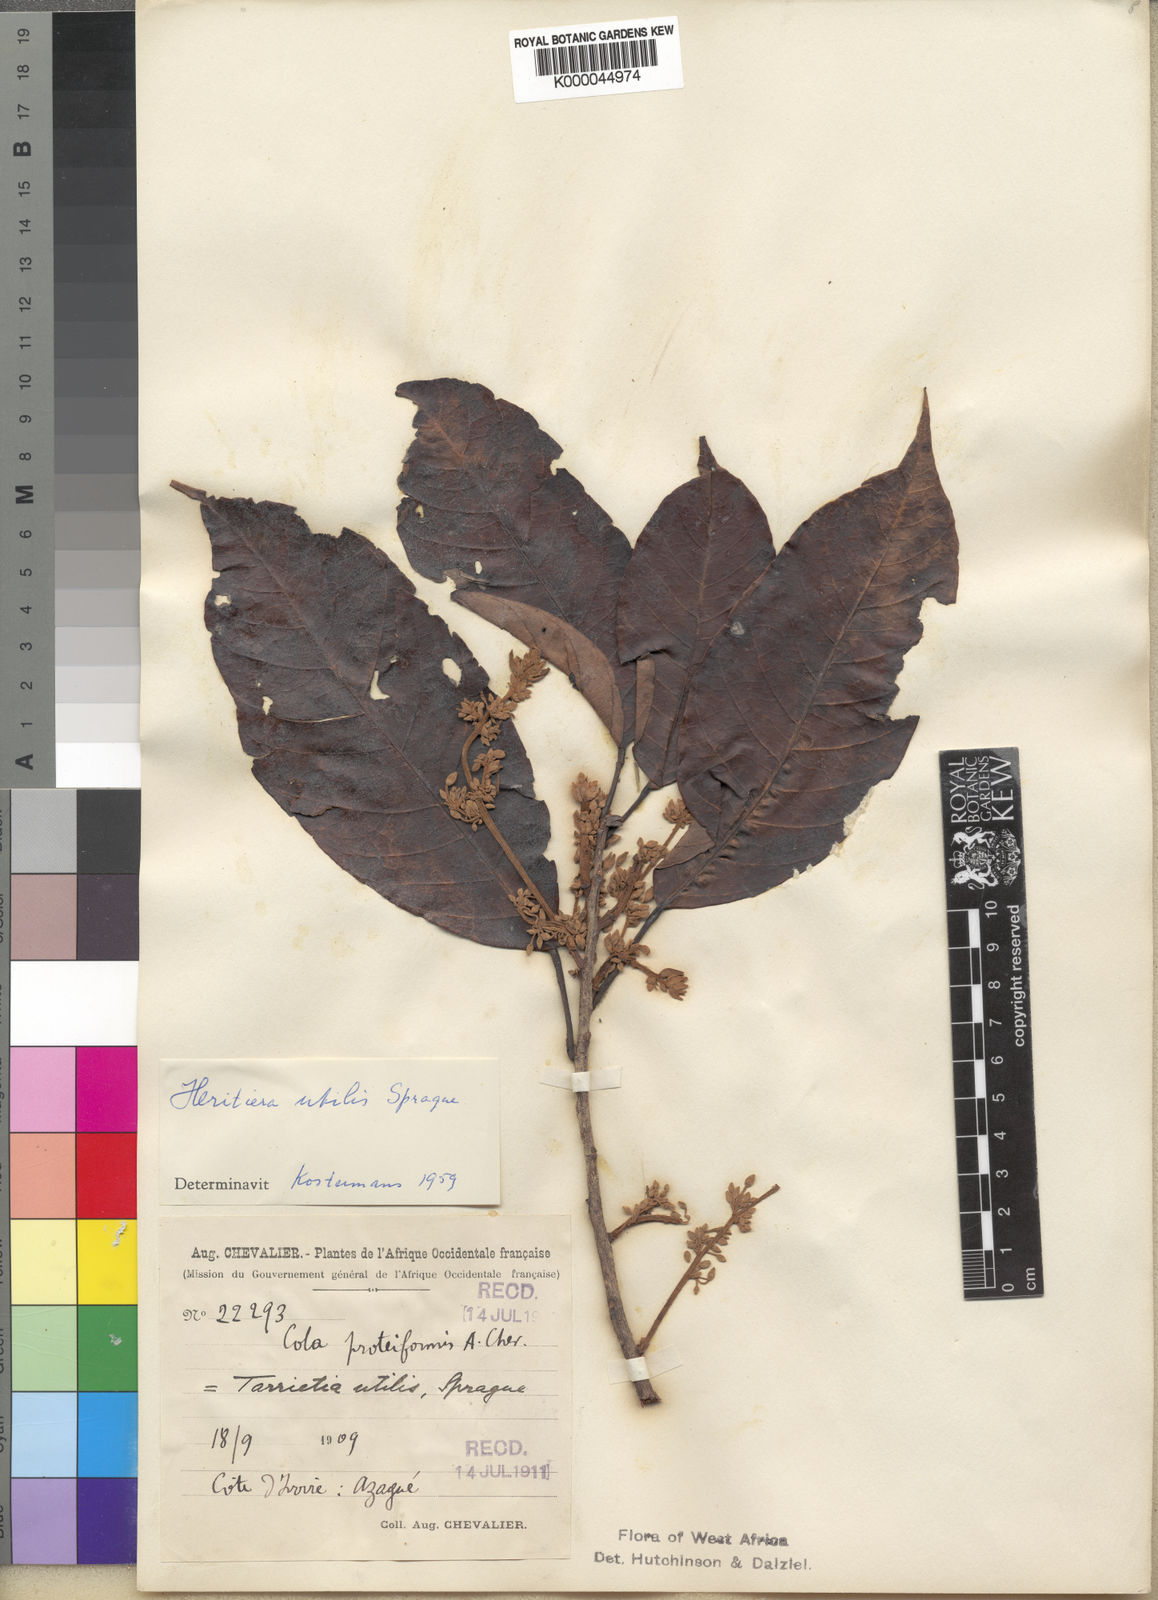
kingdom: Plantae
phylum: Tracheophyta
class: Magnoliopsida
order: Malvales
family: Malvaceae
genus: Heritiera
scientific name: Heritiera utilis
